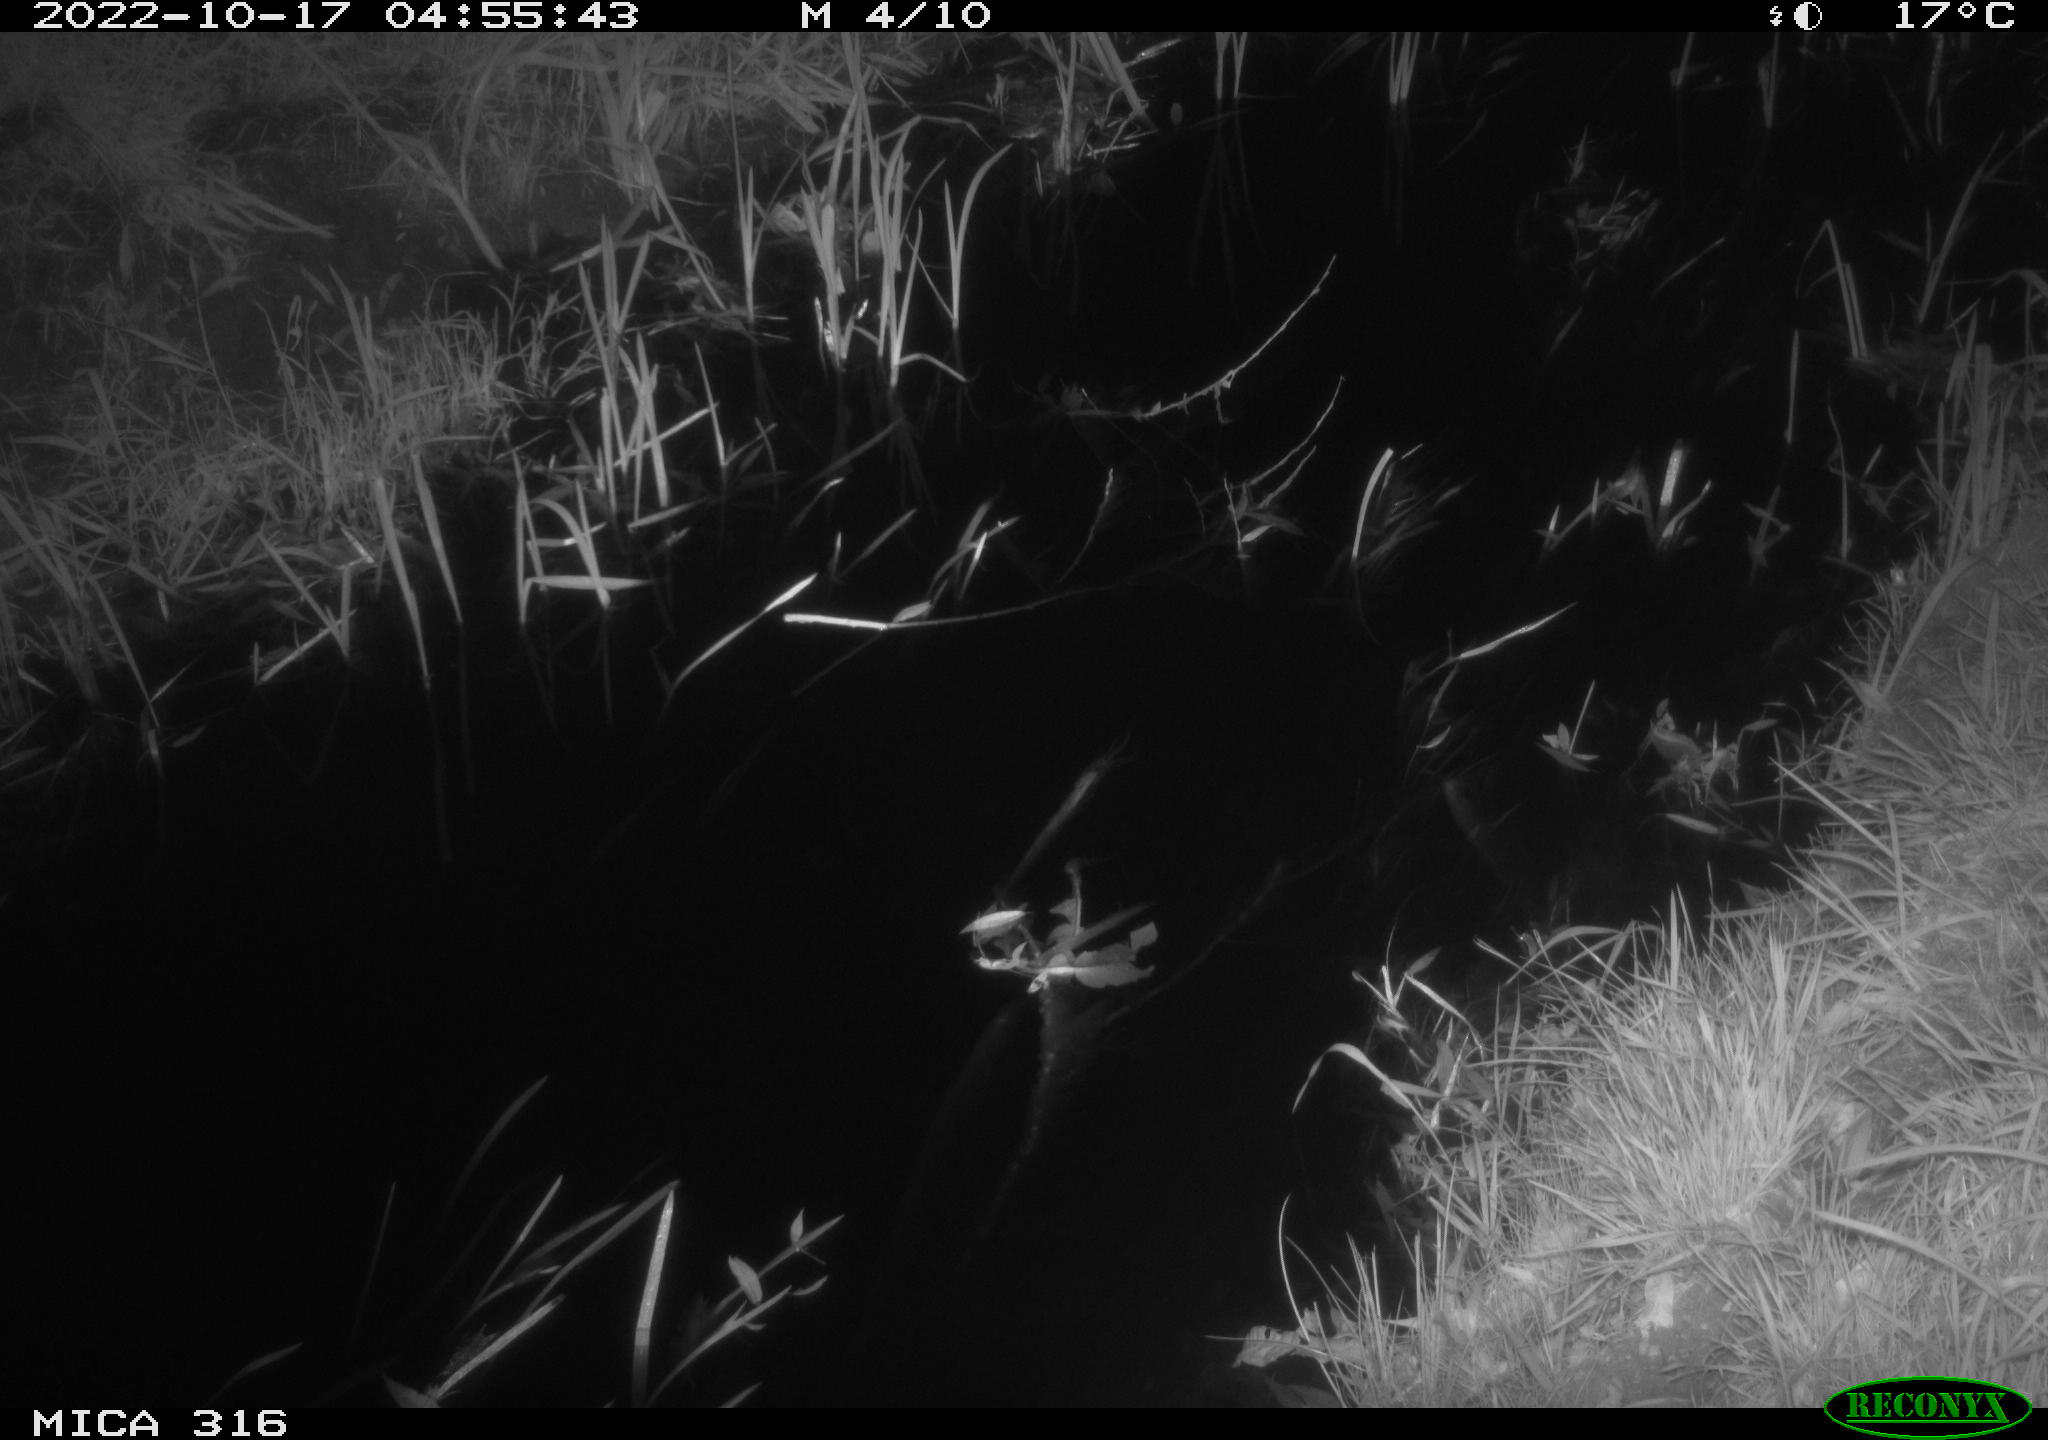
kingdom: Animalia
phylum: Chordata
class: Mammalia
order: Carnivora
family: Canidae
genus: Vulpes
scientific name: Vulpes vulpes
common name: Red fox
